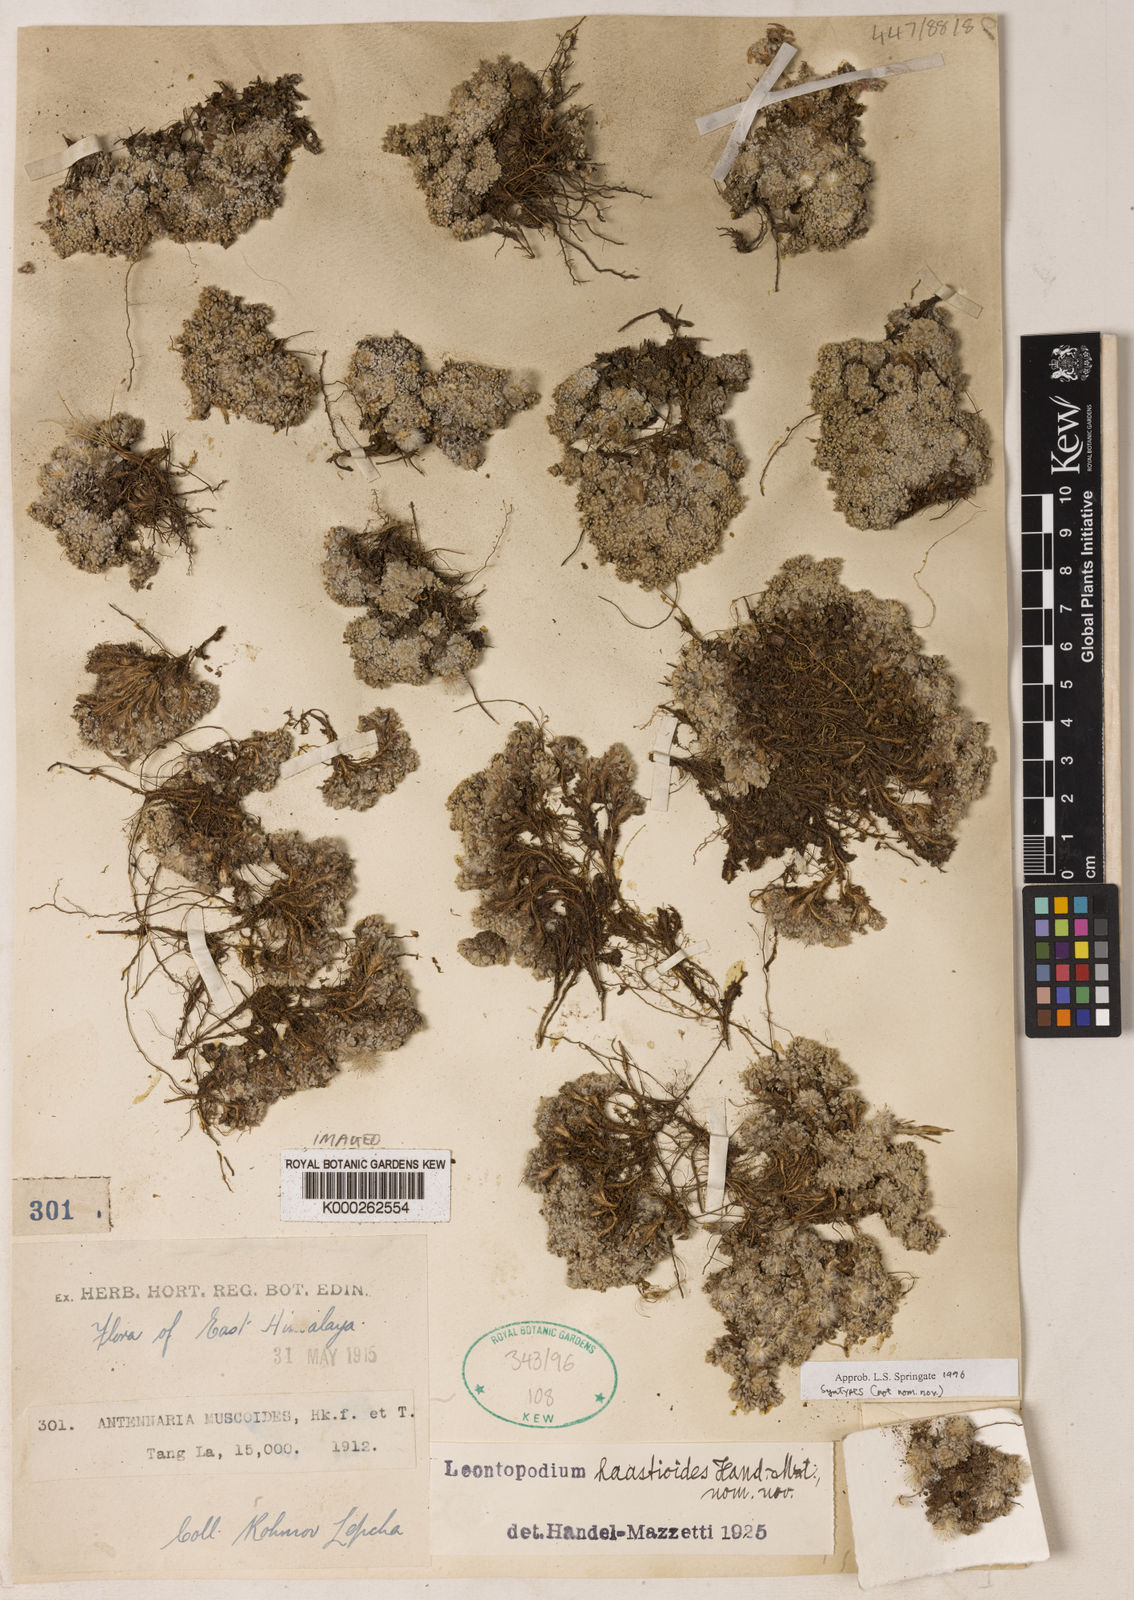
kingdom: Plantae
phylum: Tracheophyta
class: Magnoliopsida
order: Asterales
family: Asteraceae
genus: Leontopodium
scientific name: Leontopodium haastioides
